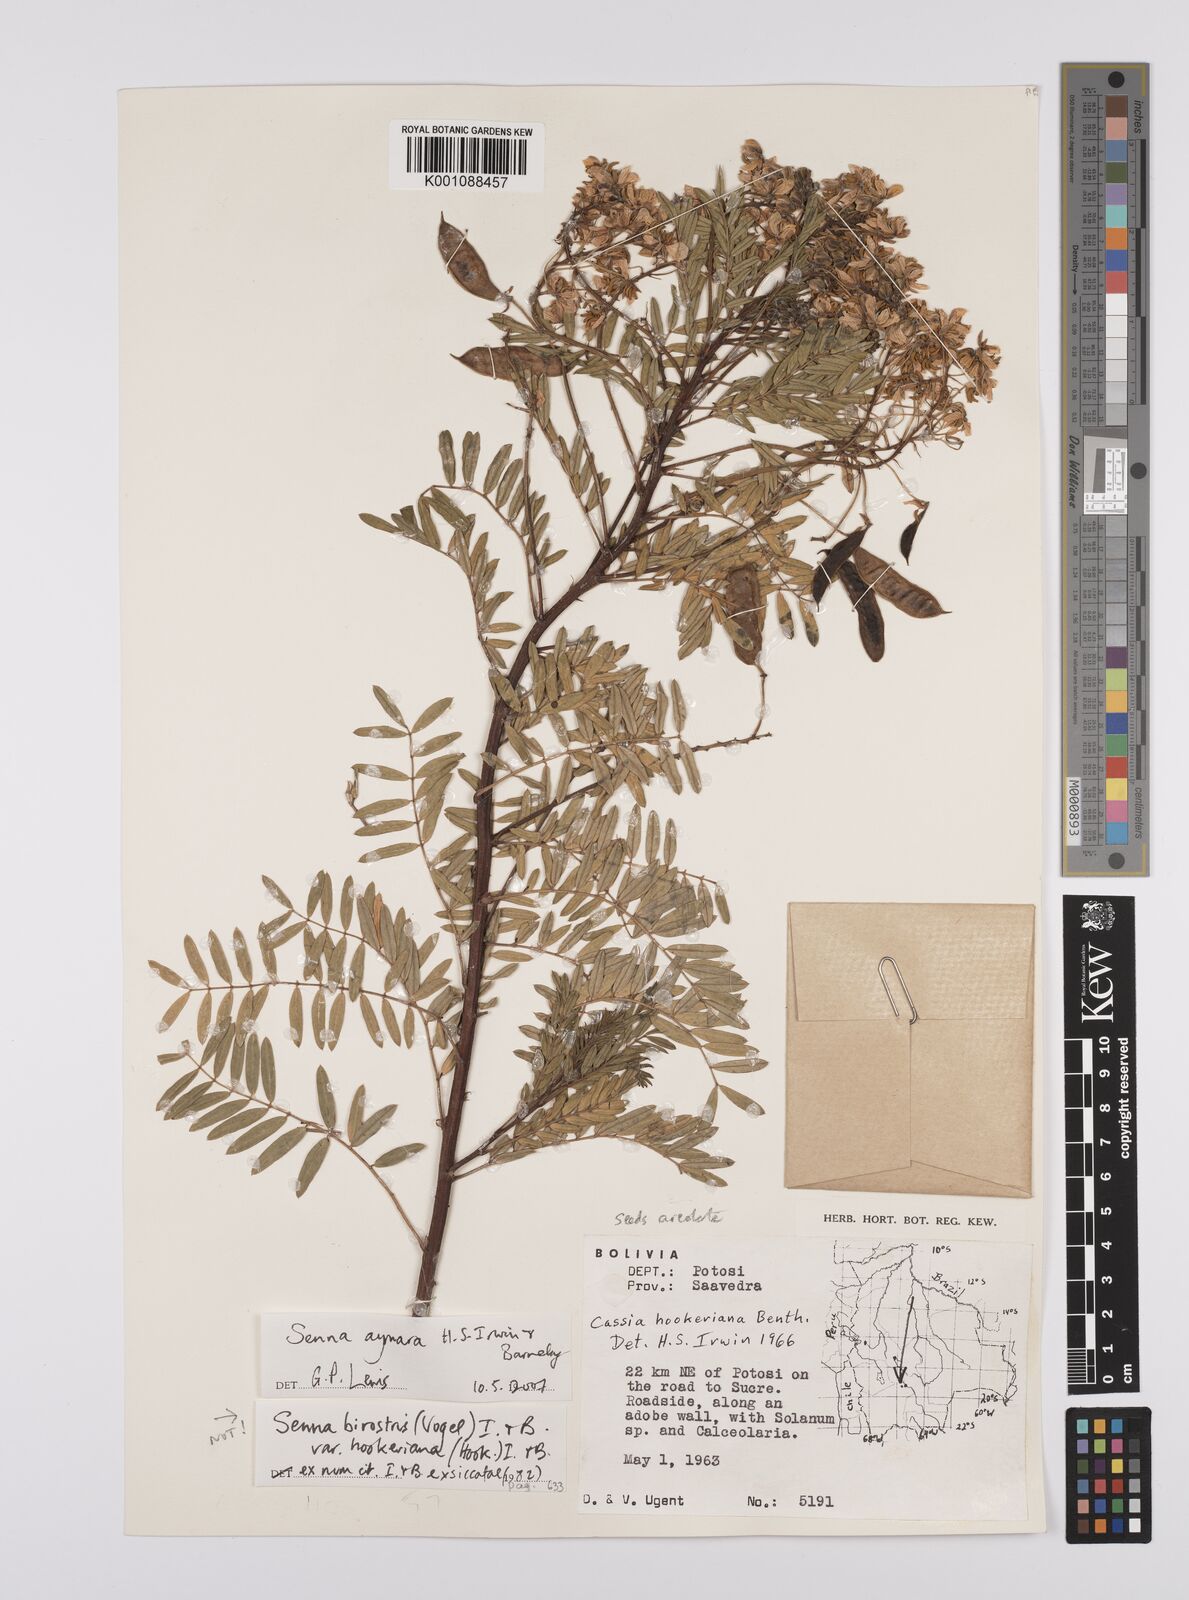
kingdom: Plantae
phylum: Tracheophyta
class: Magnoliopsida
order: Fabales
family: Fabaceae
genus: Senna
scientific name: Senna aymara
